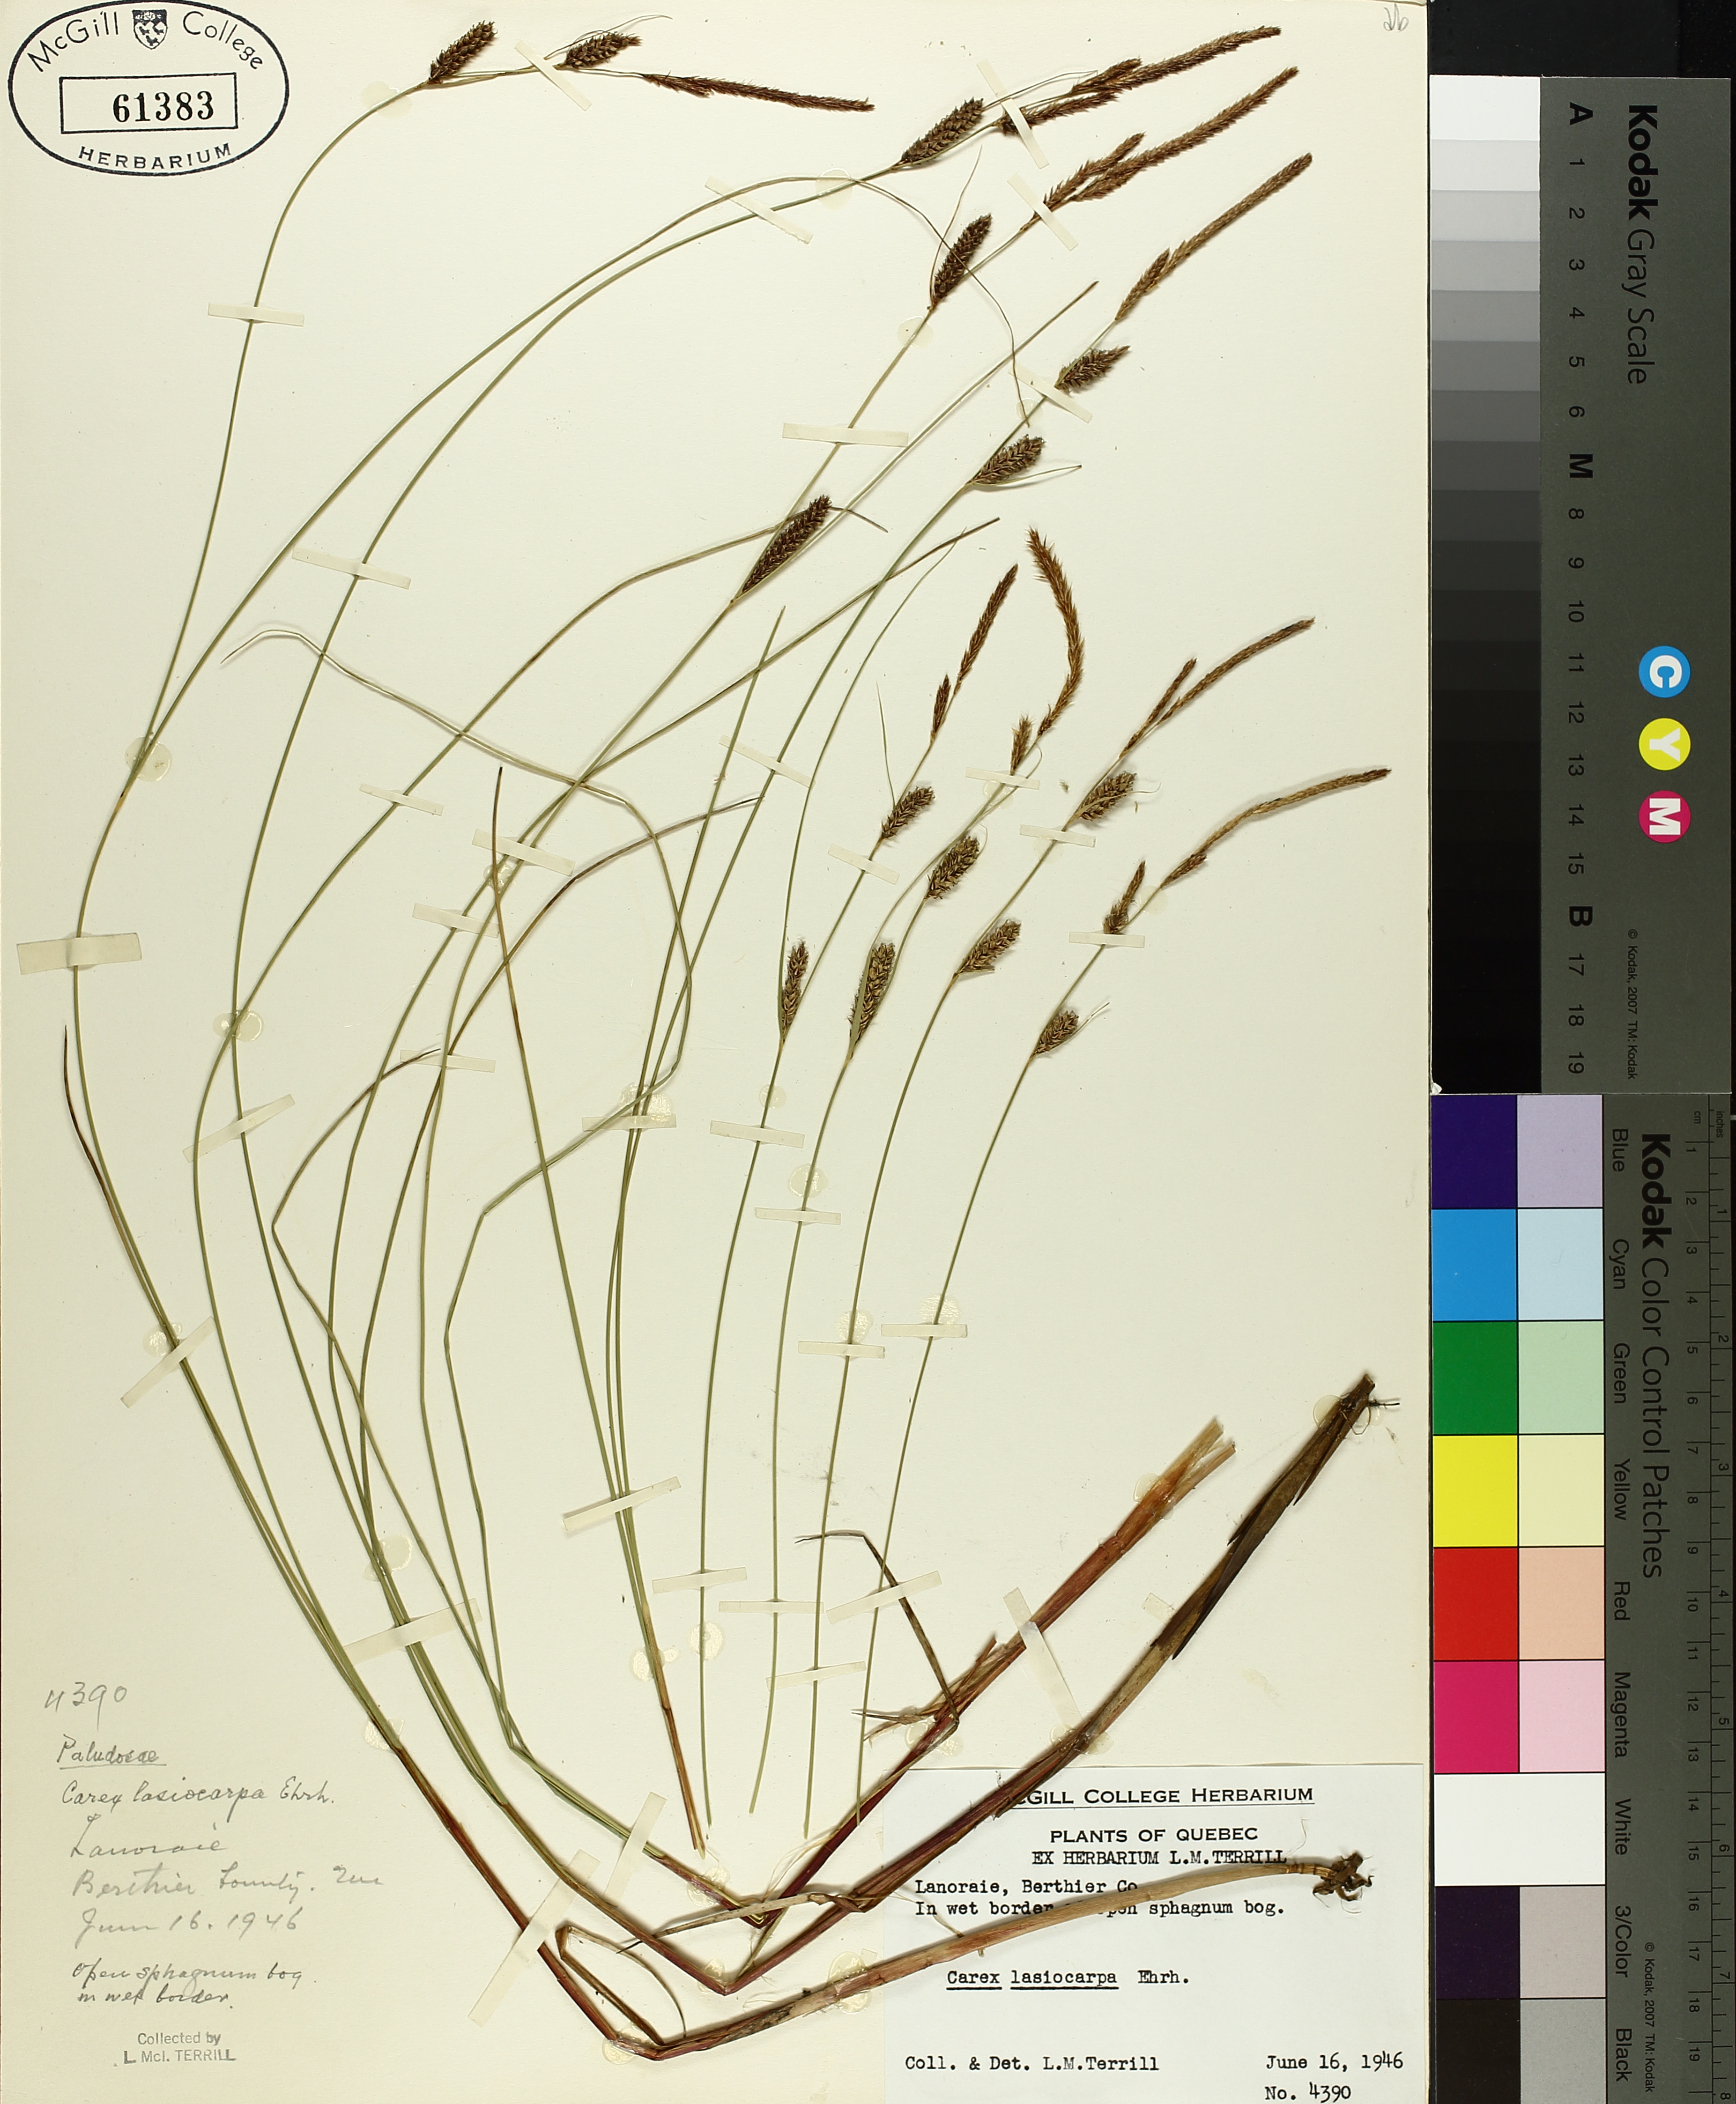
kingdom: Plantae
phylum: Tracheophyta
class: Liliopsida
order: Poales
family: Cyperaceae
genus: Carex
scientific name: Carex lasiocarpa
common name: Slender sedge
